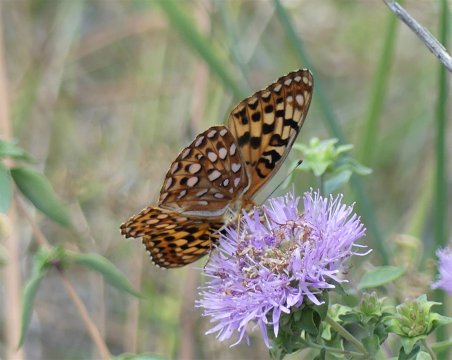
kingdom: Animalia
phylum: Arthropoda
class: Insecta
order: Lepidoptera
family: Nymphalidae
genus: Speyeria
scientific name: Speyeria zerene
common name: Zerene Fritillary
